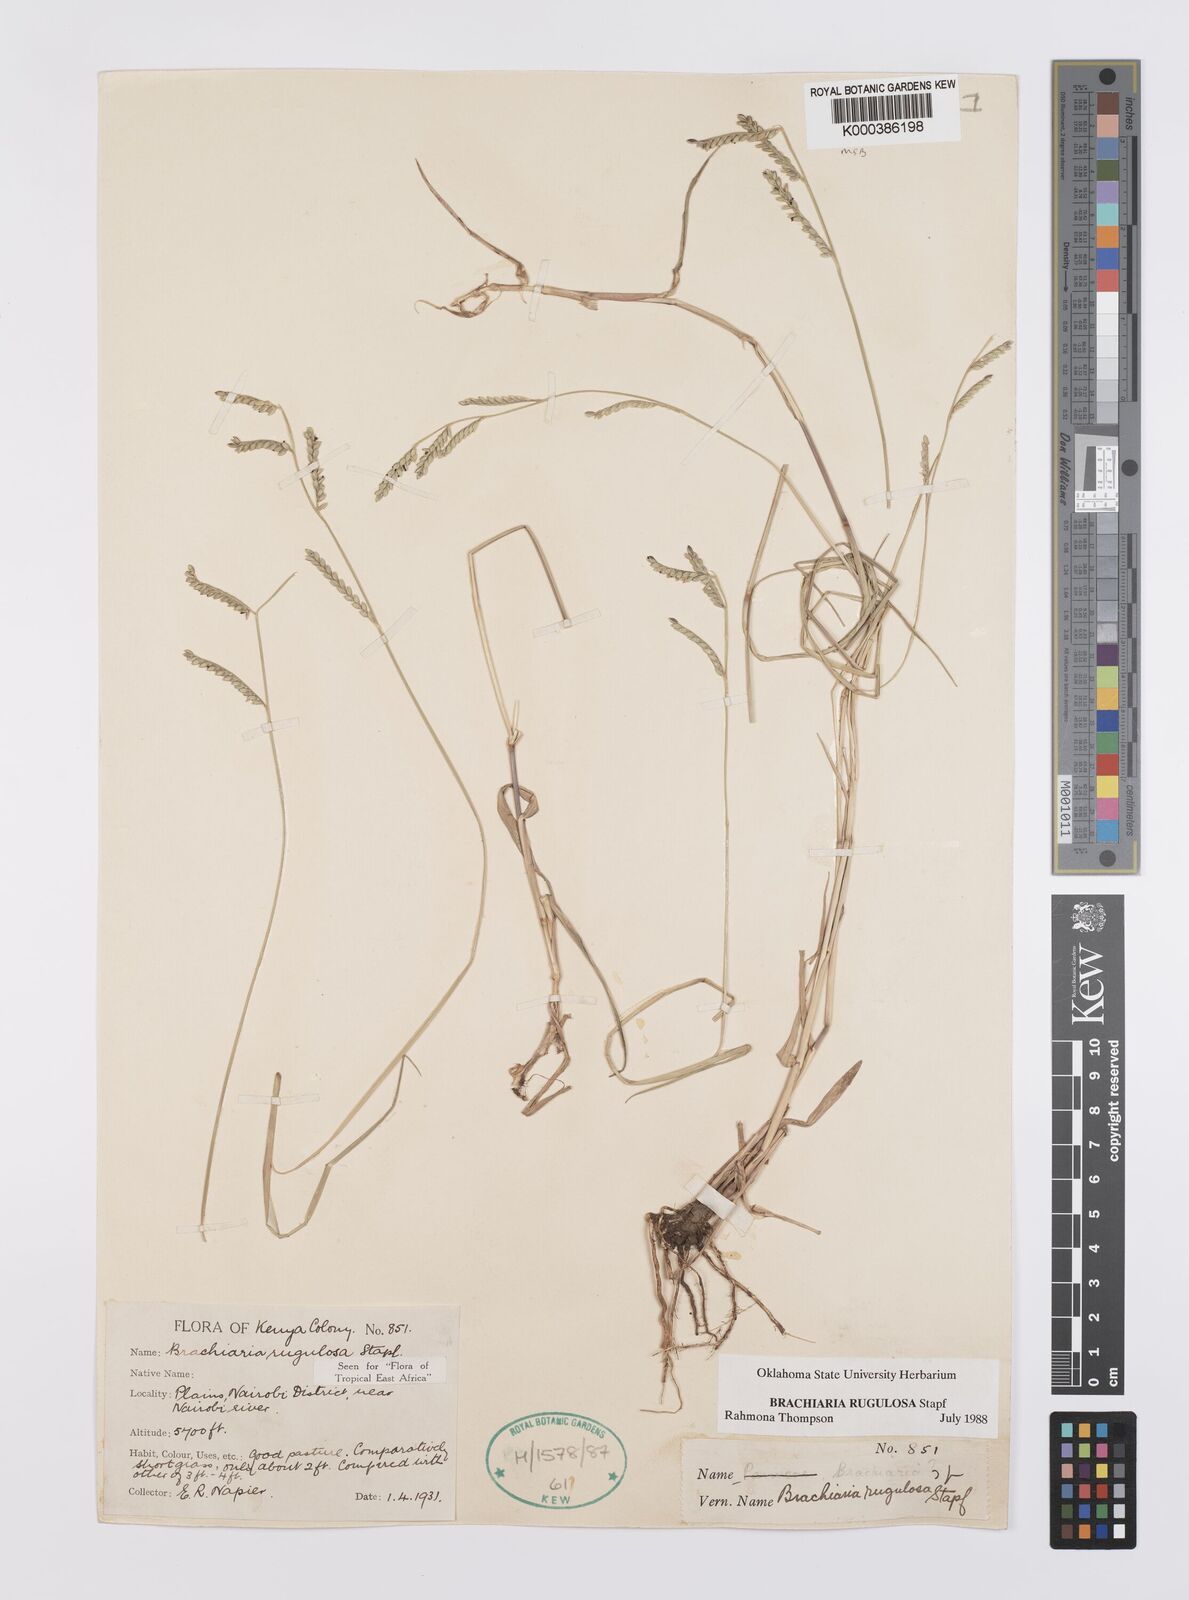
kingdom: Plantae
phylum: Tracheophyta
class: Liliopsida
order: Poales
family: Poaceae
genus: Urochloa
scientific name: Urochloa rugulosa
